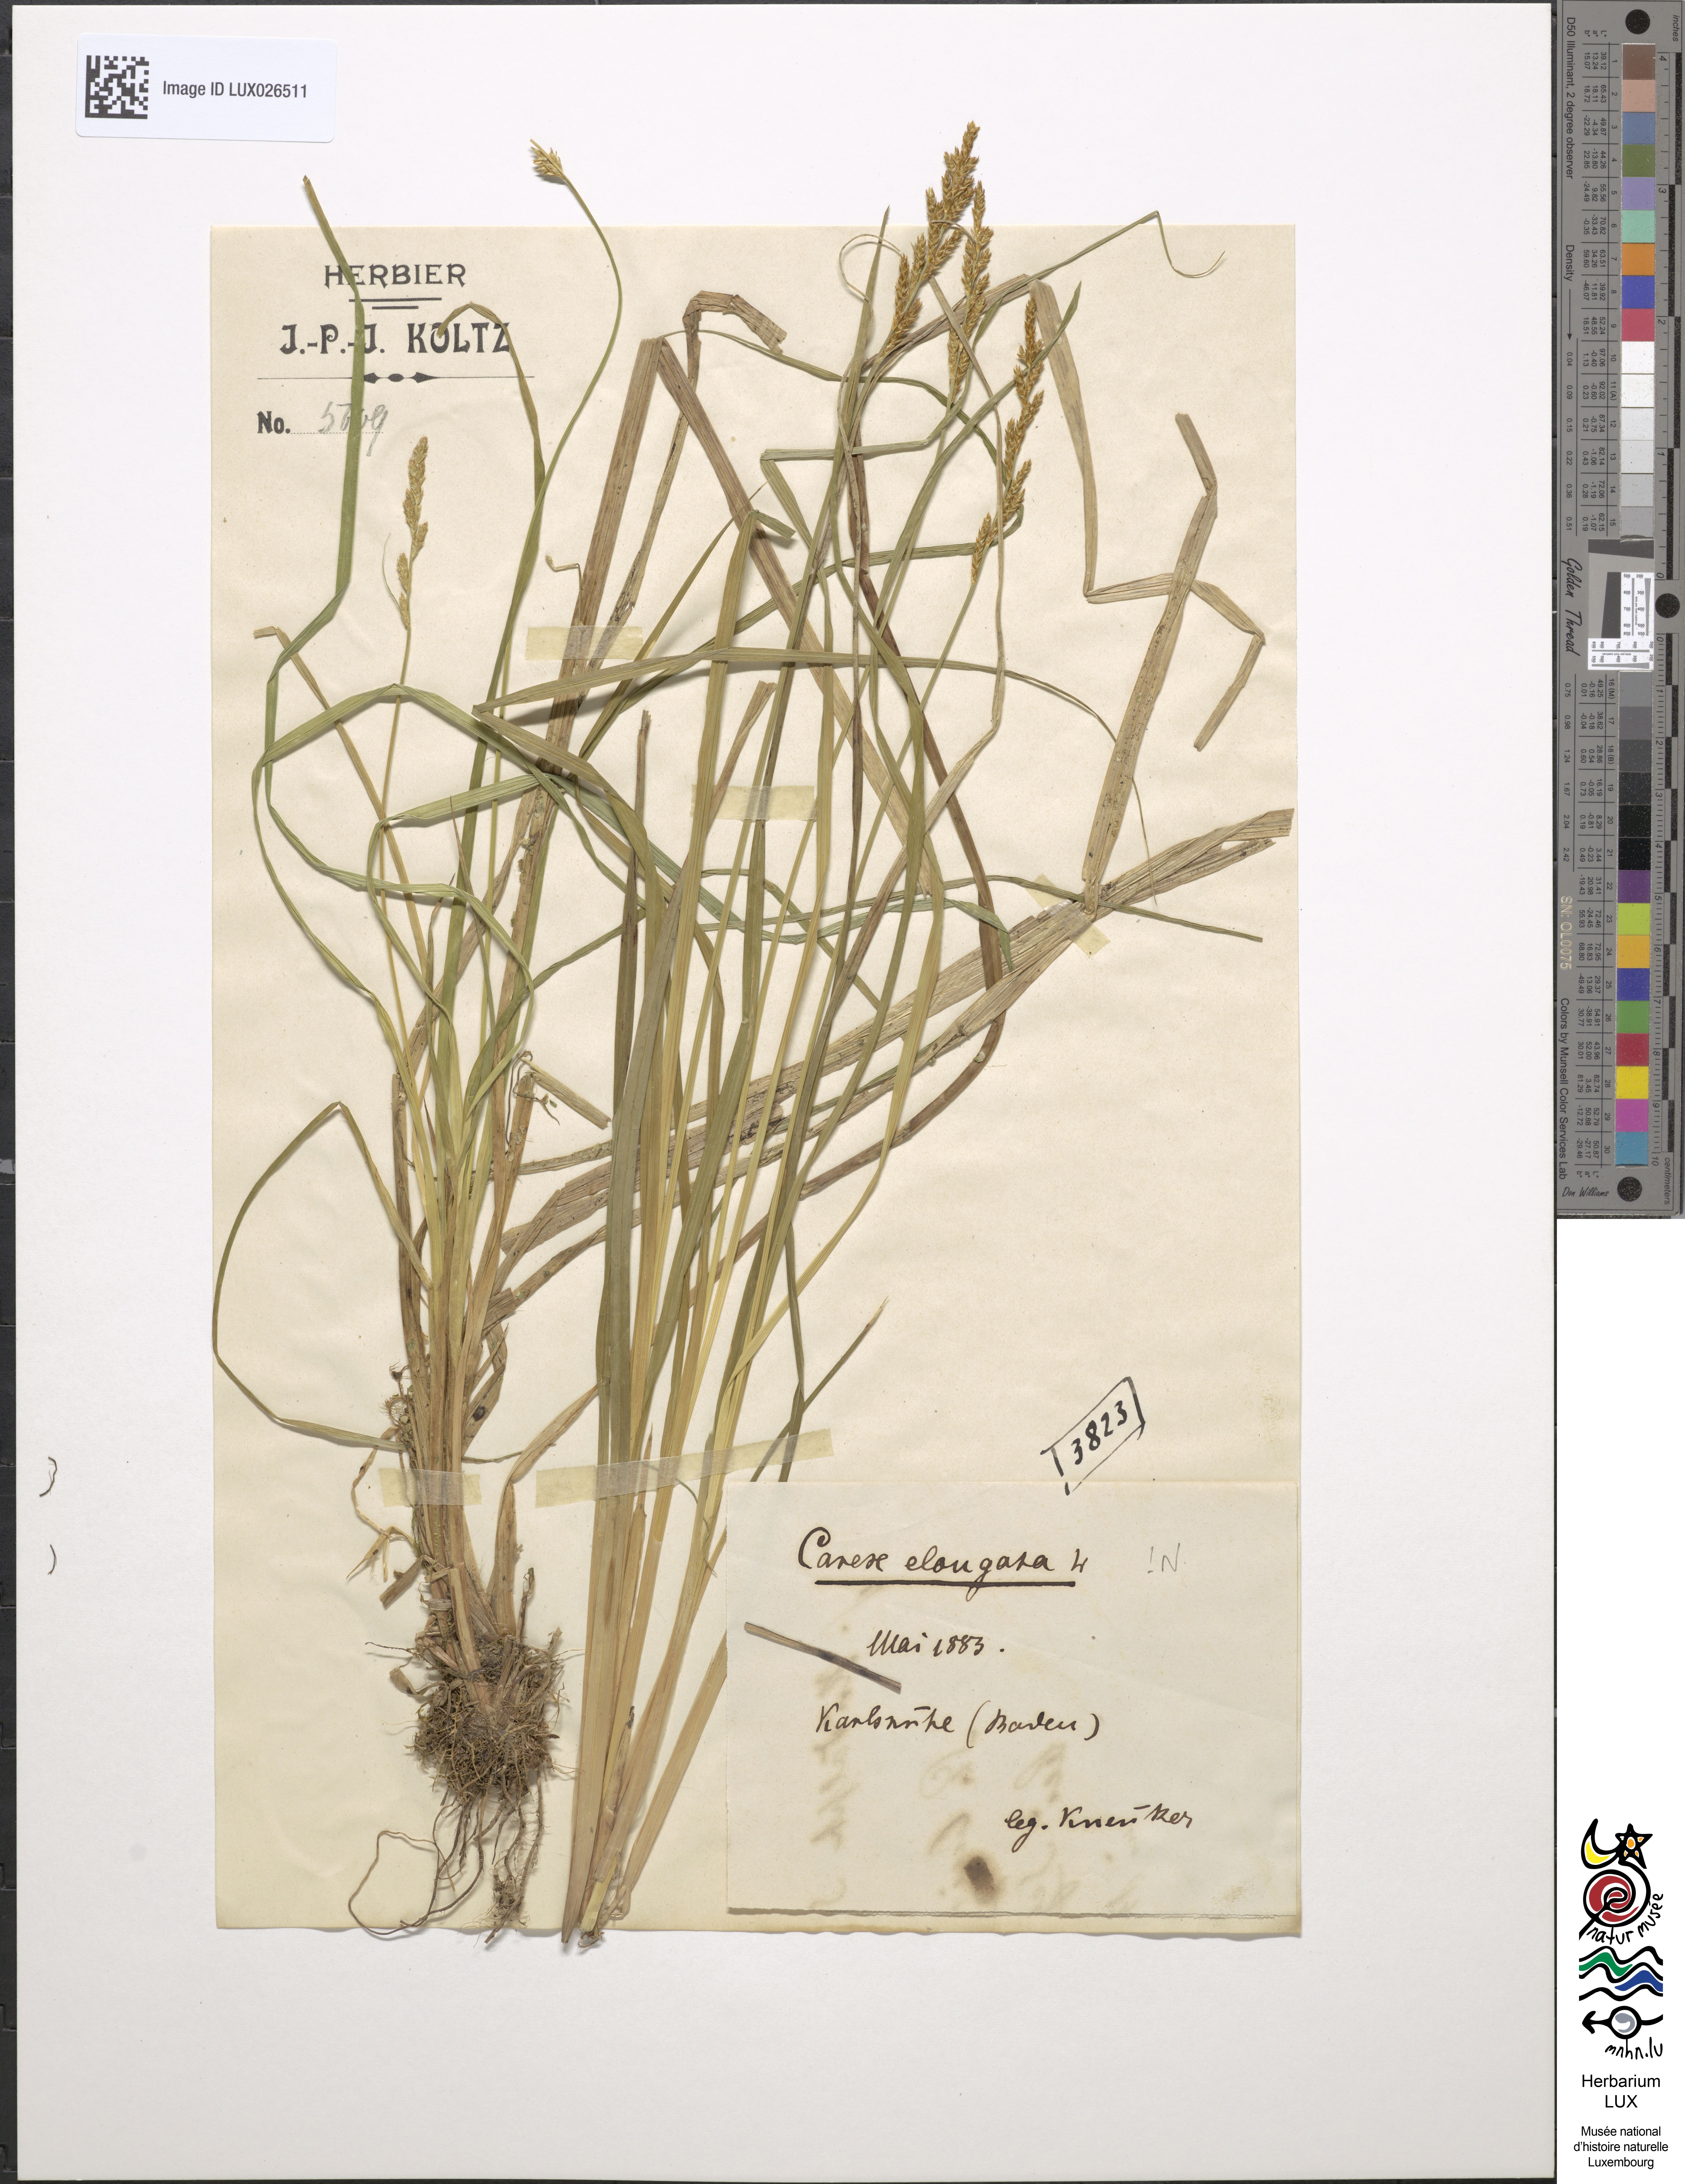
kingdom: Plantae
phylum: Tracheophyta
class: Liliopsida
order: Poales
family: Cyperaceae
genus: Carex
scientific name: Carex elongata
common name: Elongated sedge
